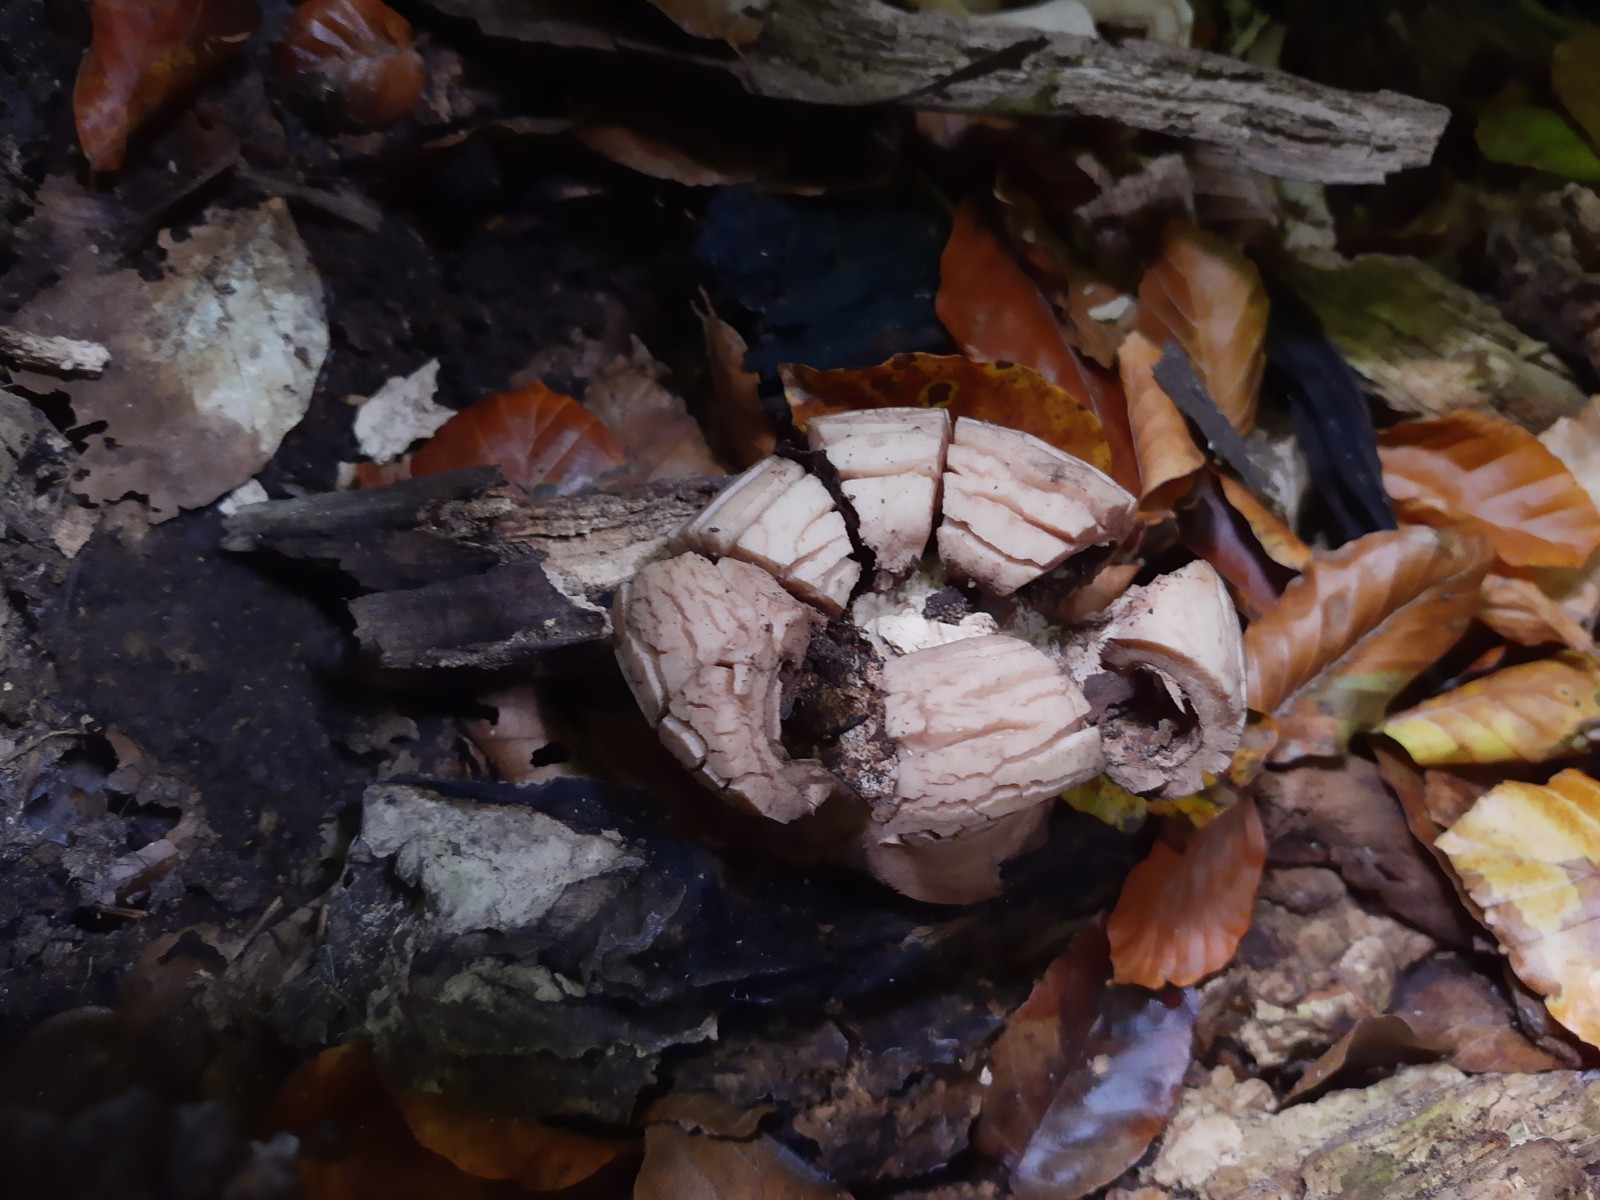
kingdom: Fungi
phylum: Basidiomycota
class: Agaricomycetes
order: Geastrales
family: Geastraceae
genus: Geastrum
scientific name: Geastrum michelianum
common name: kødet stjernebold
